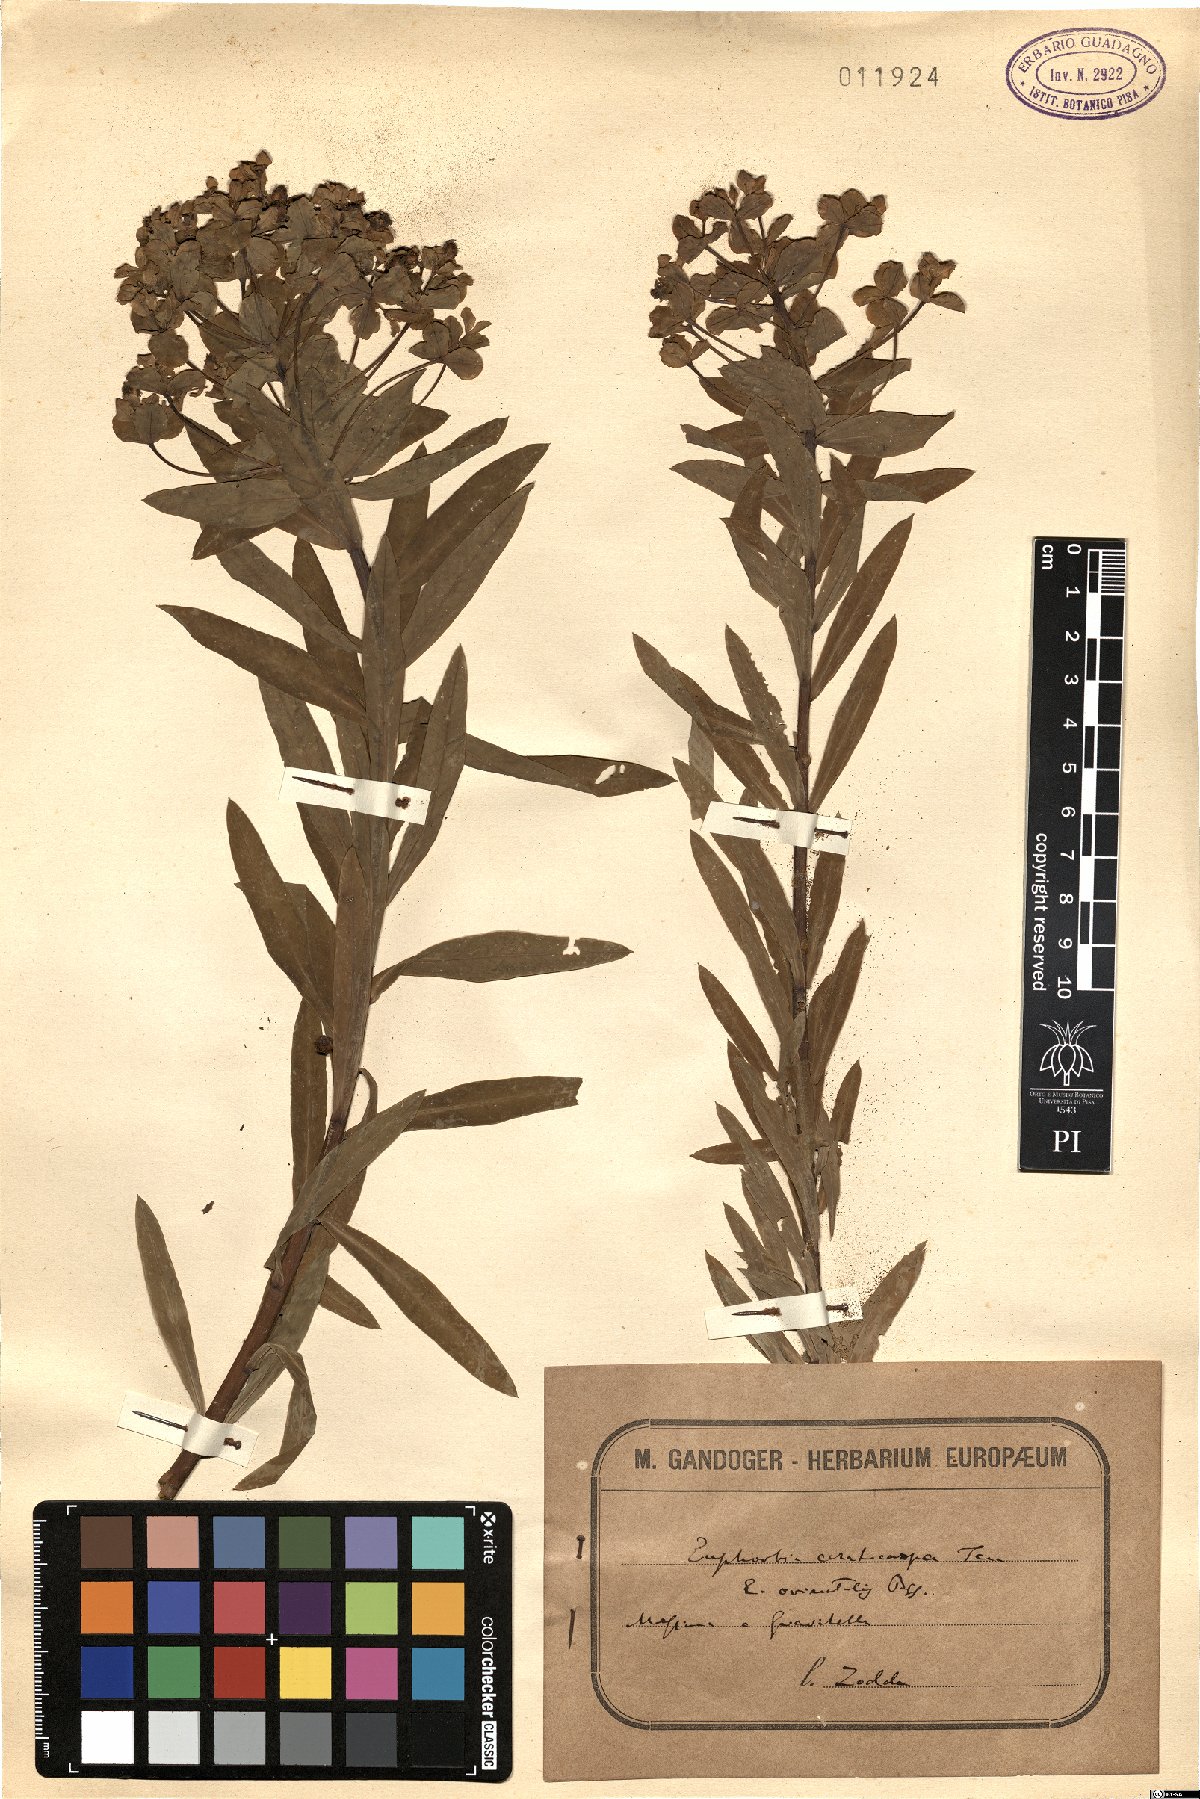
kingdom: Plantae
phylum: Tracheophyta
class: Magnoliopsida
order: Malpighiales
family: Euphorbiaceae
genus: Euphorbia
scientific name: Euphorbia ceratocarpa
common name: Horned spurge
